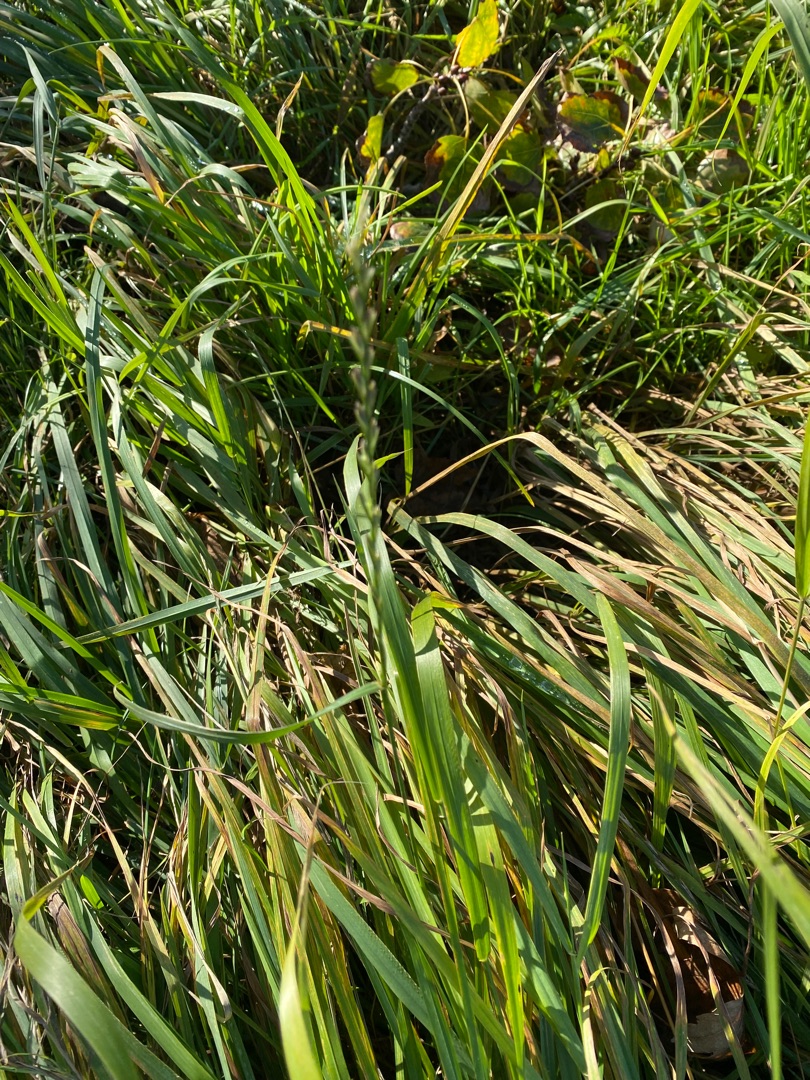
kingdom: Plantae
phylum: Tracheophyta
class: Liliopsida
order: Poales
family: Poaceae
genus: Lolium
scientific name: Lolium perenne
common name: Almindelig rajgræs
